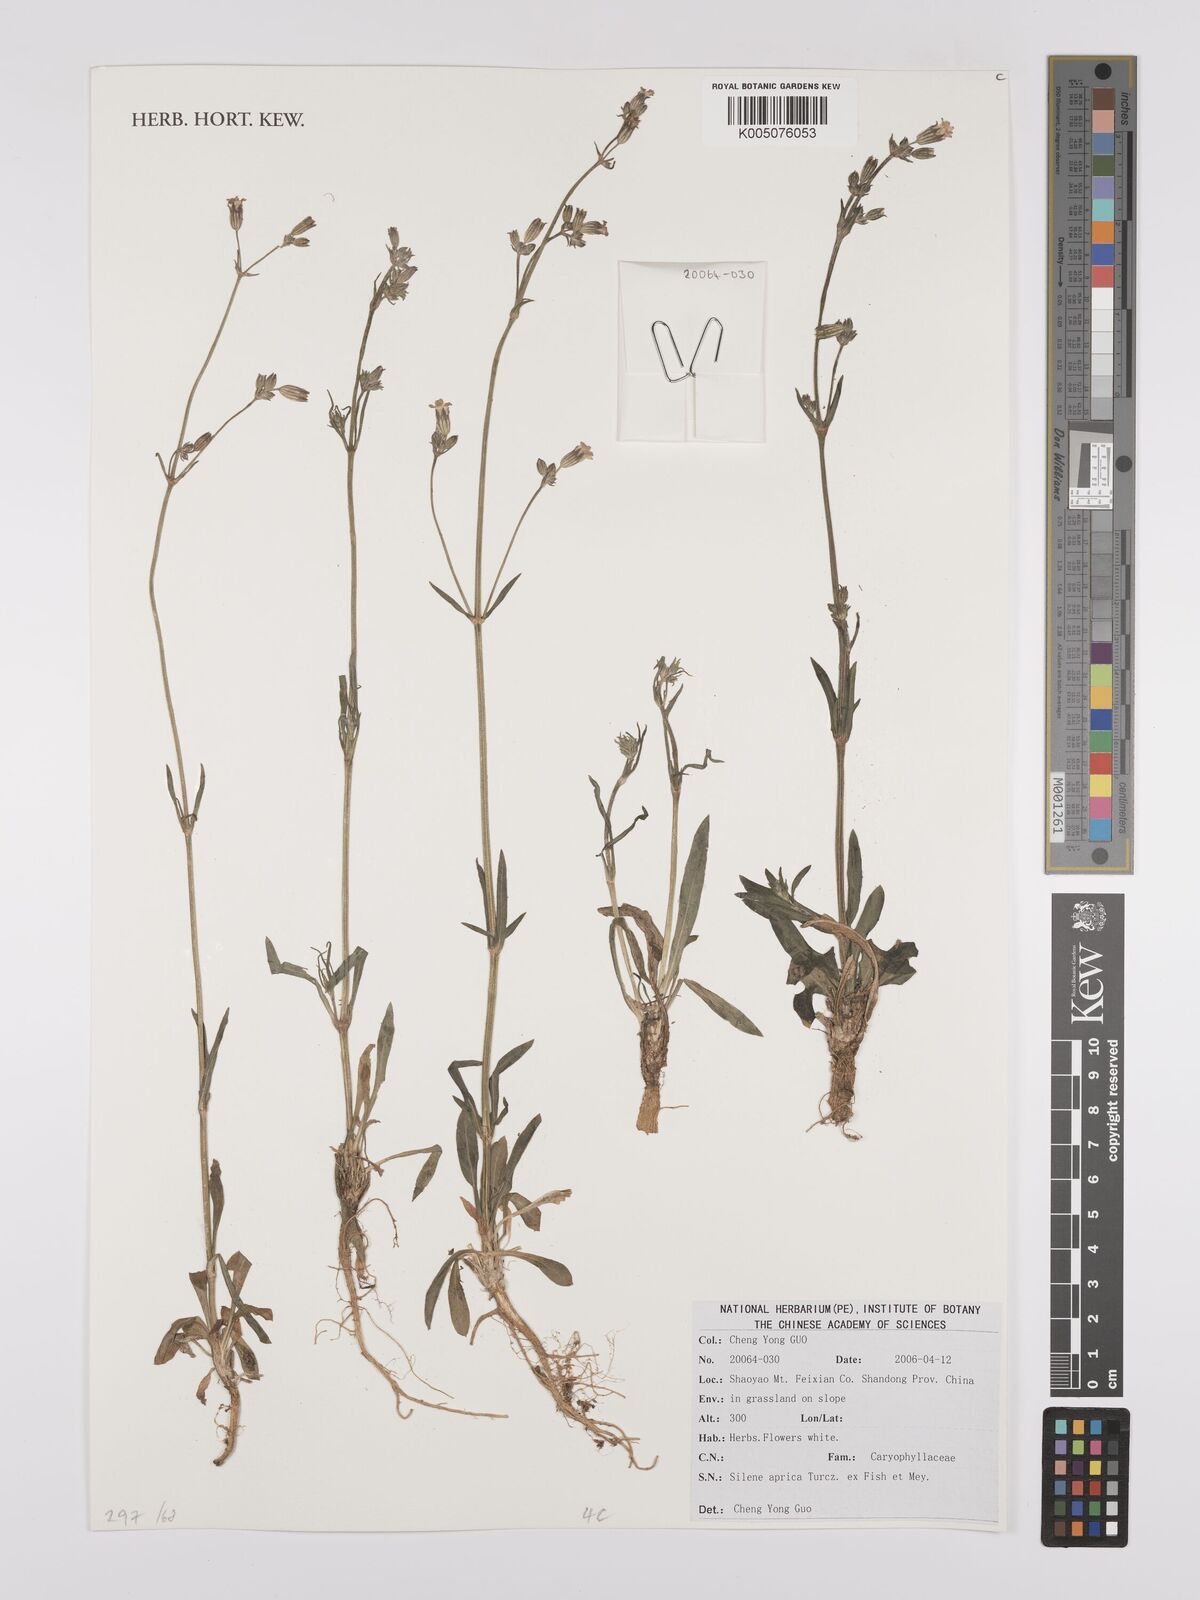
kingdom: Plantae
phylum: Tracheophyta
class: Magnoliopsida
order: Caryophyllales
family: Caryophyllaceae
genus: Silene
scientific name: Silene aprica
